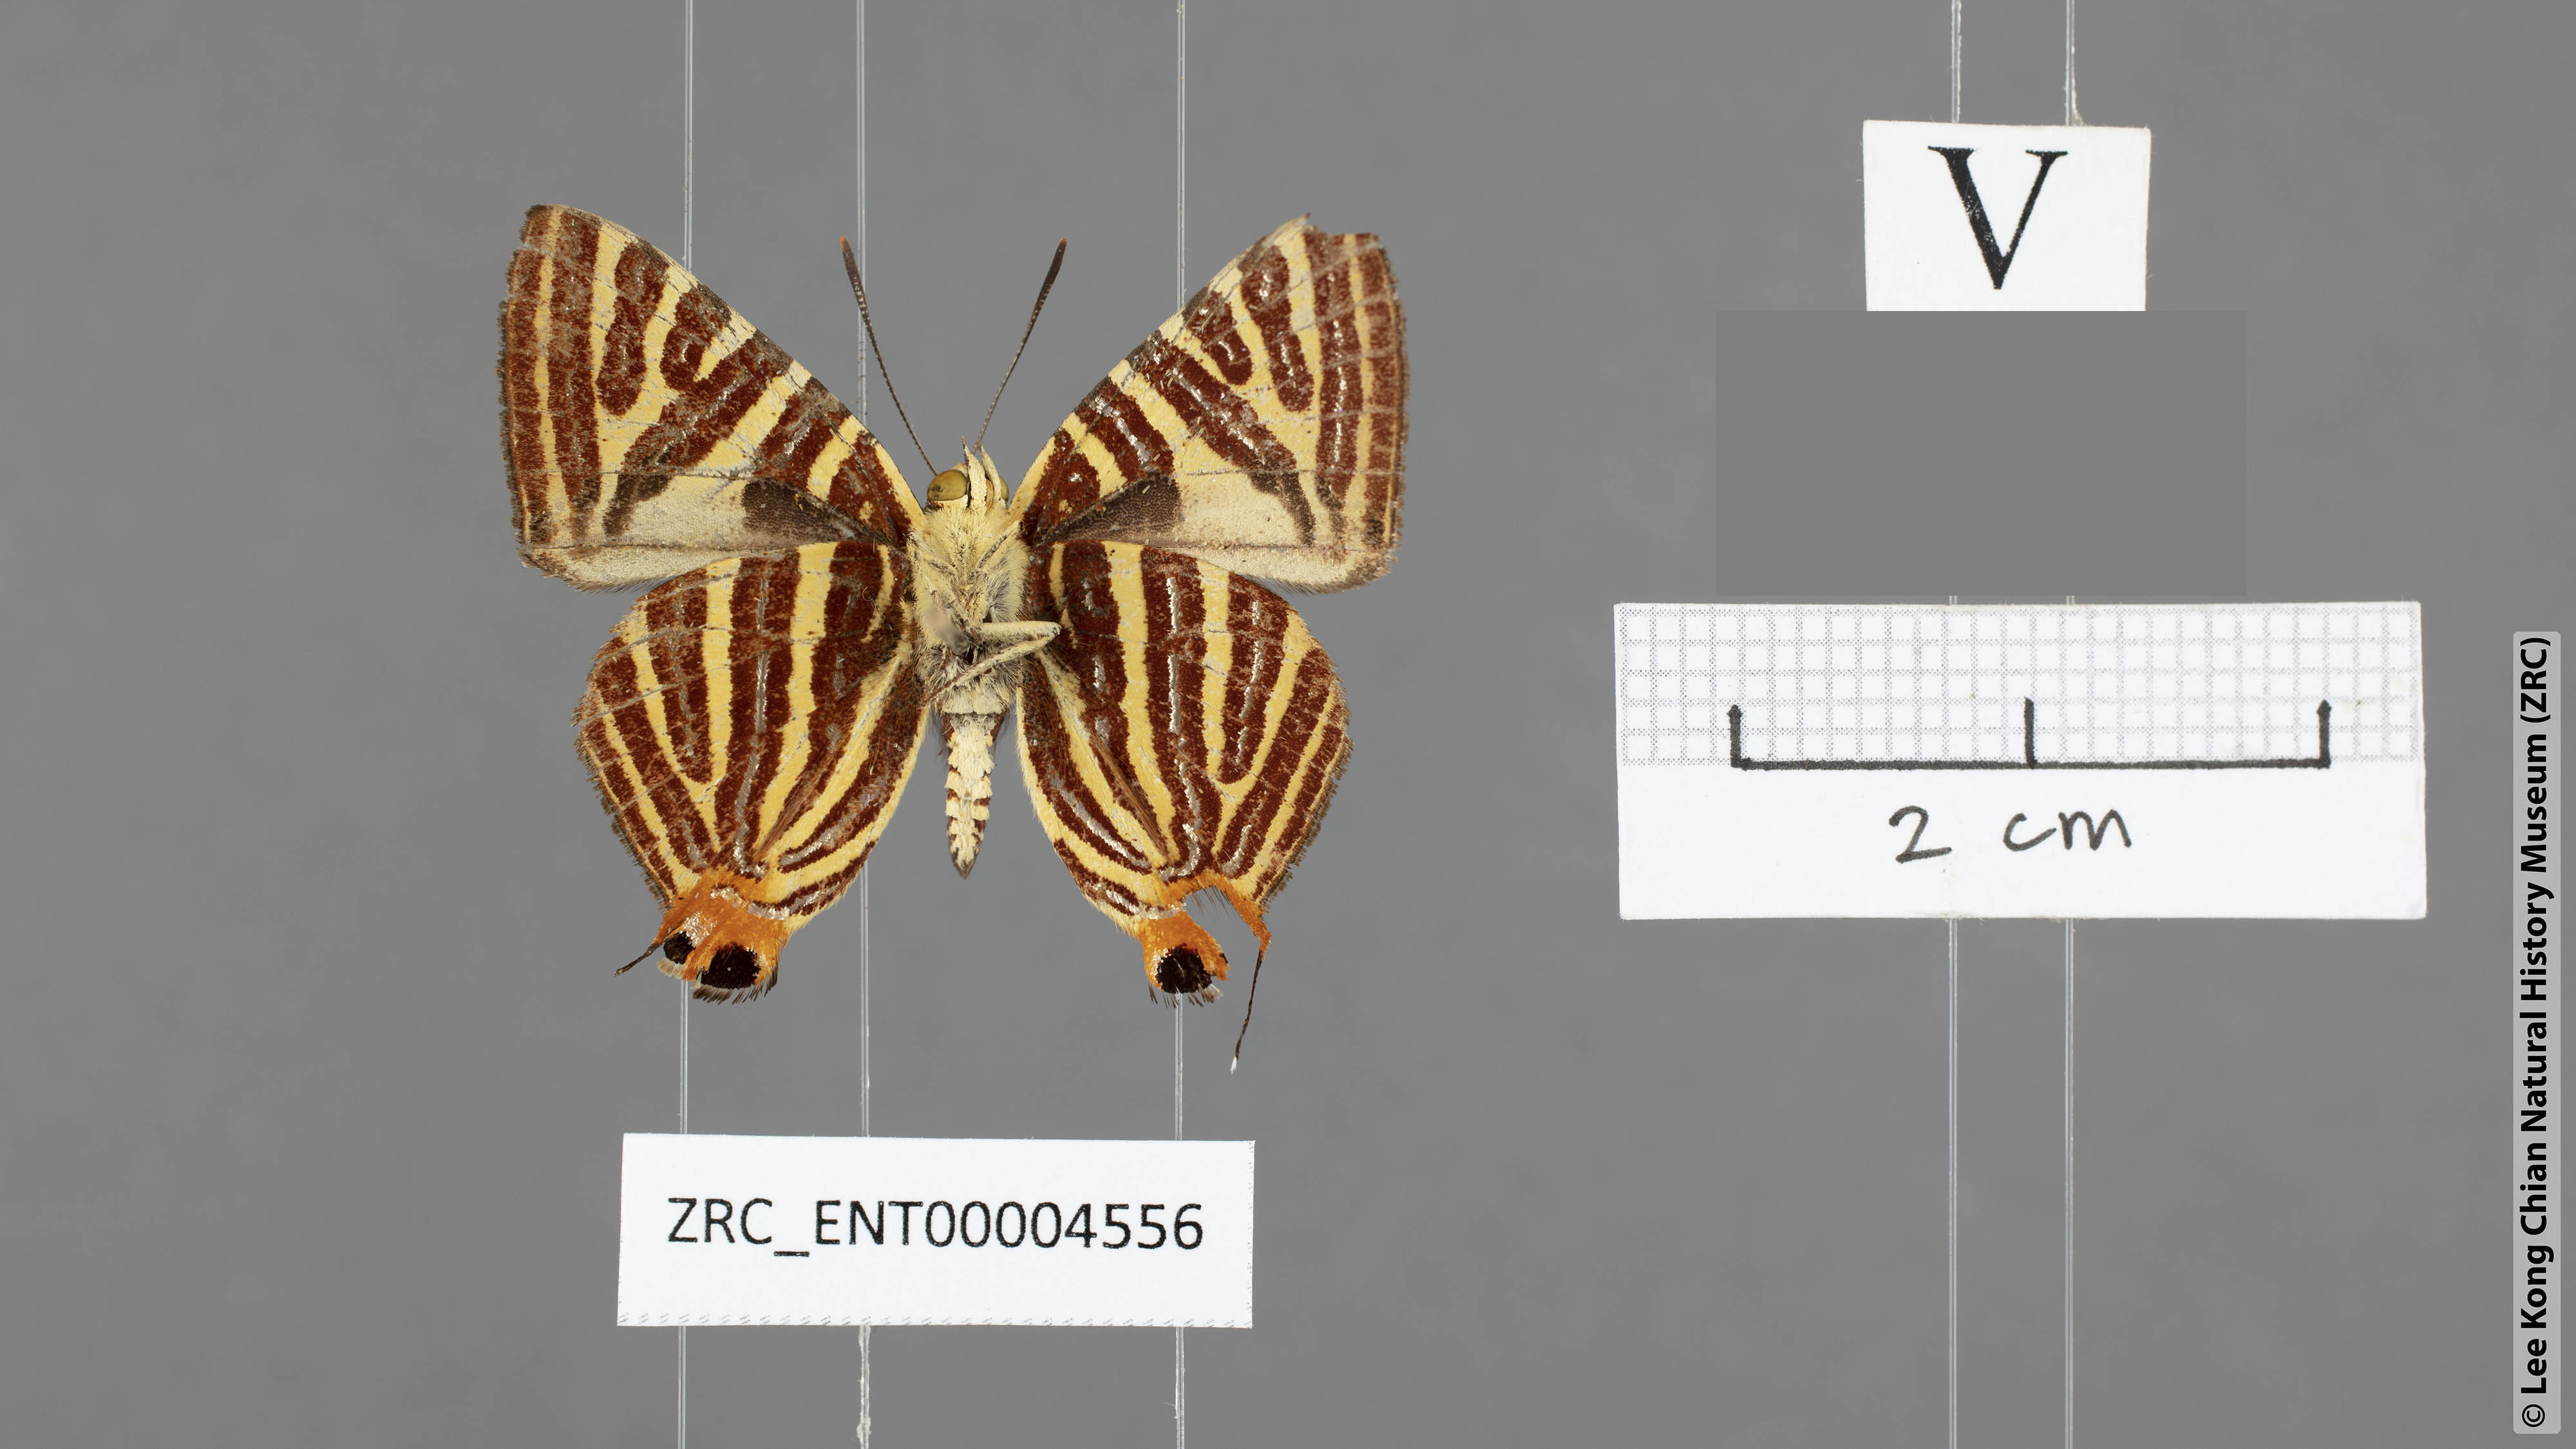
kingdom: Animalia
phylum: Arthropoda
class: Insecta
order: Lepidoptera
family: Lycaenidae
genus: Spindasis
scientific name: Spindasis kutu
